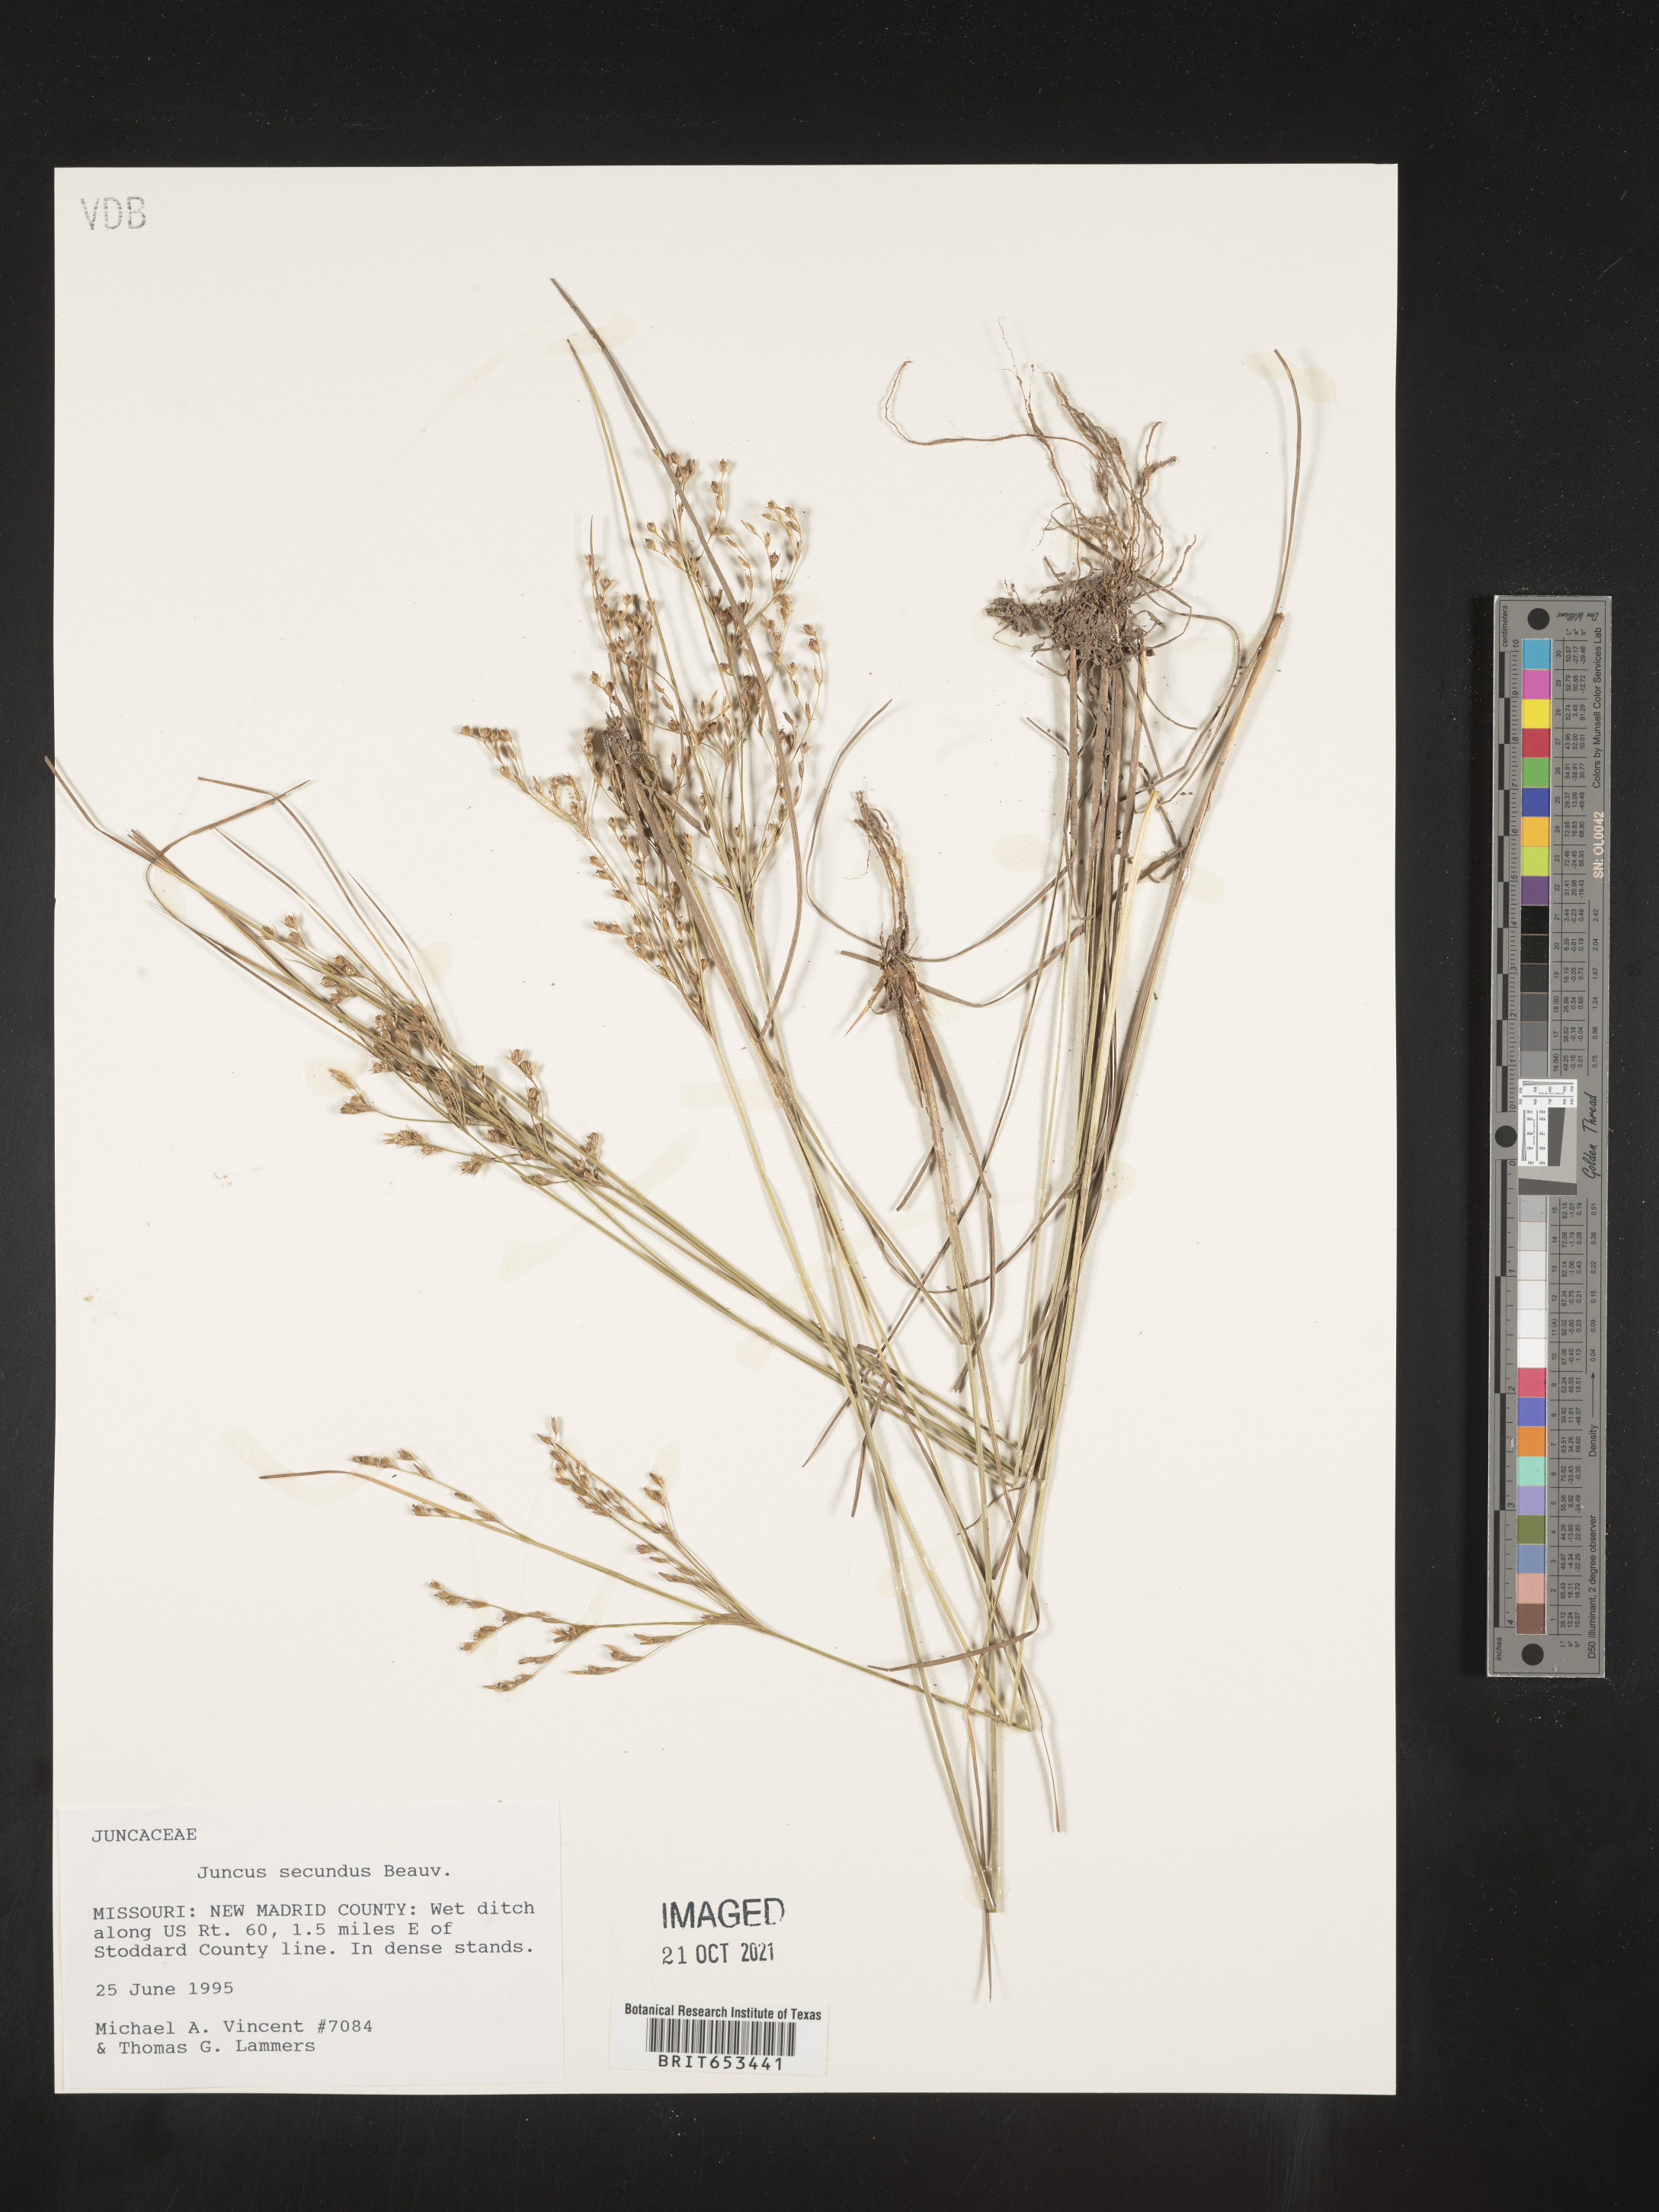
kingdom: Plantae
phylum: Tracheophyta
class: Liliopsida
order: Poales
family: Juncaceae
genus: Juncus
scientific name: Juncus secundus
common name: Lopsided rush
